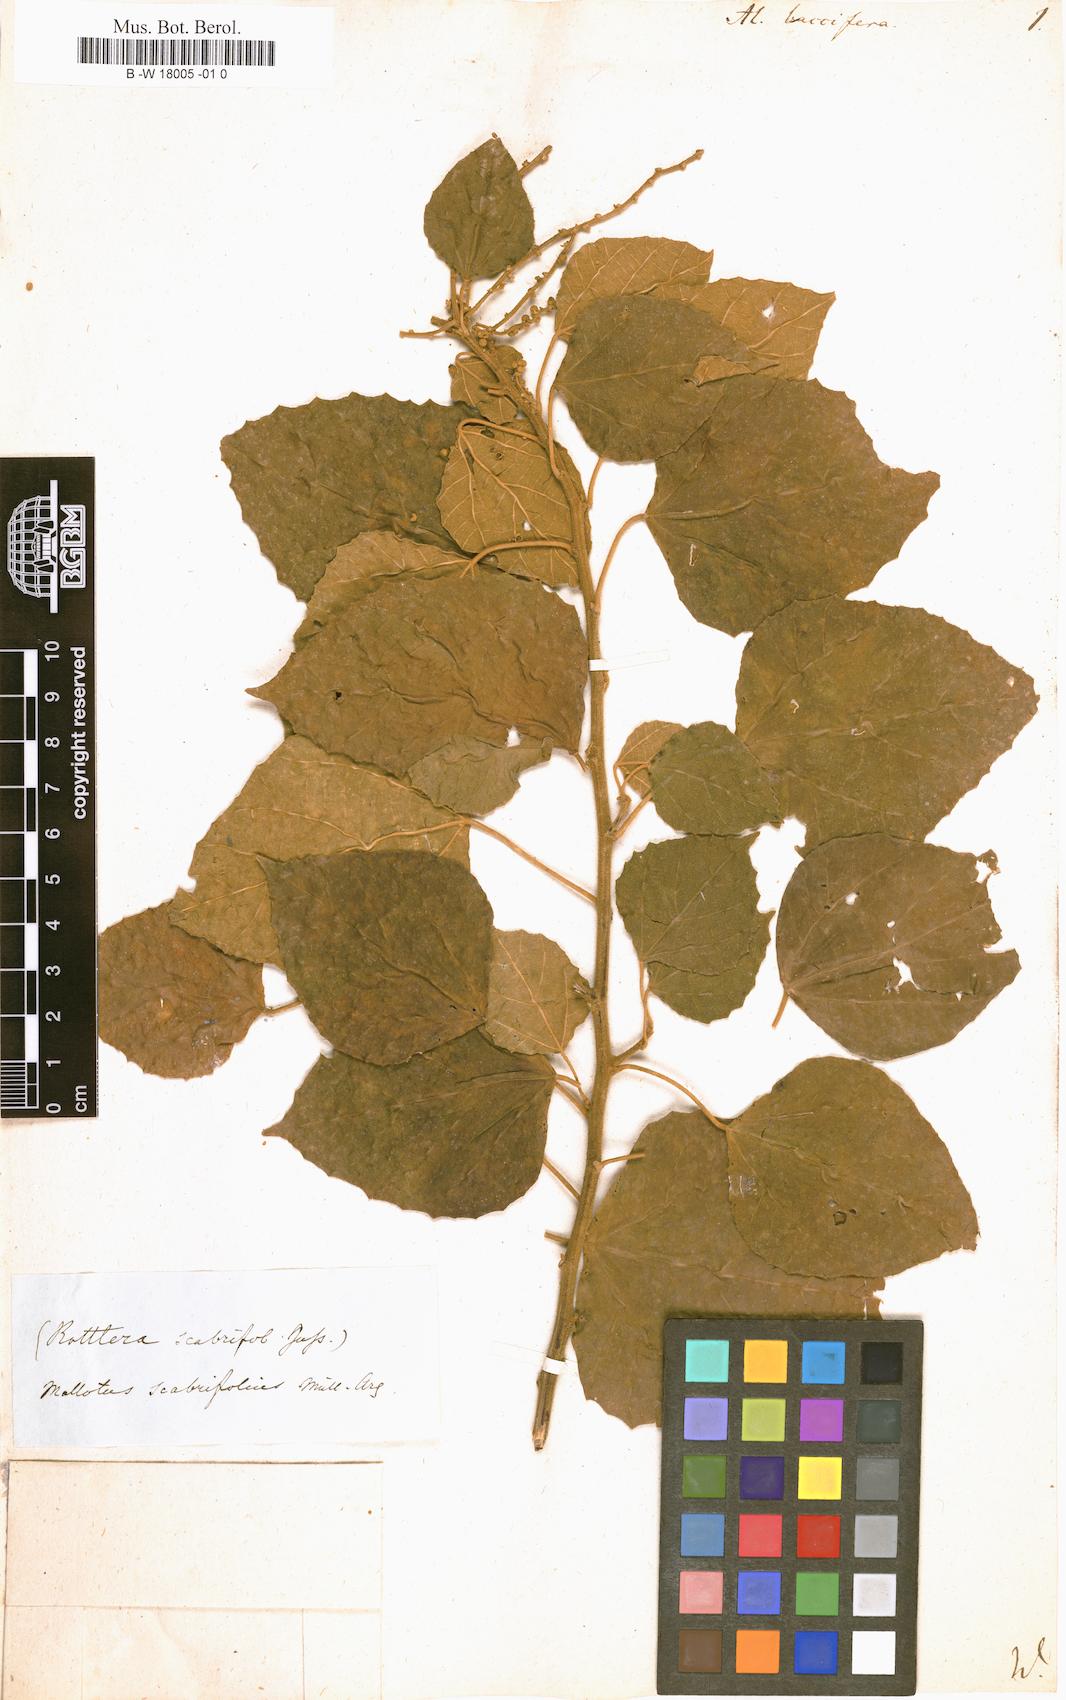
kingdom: Plantae
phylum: Tracheophyta
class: Magnoliopsida
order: Malpighiales
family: Euphorbiaceae
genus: Croton
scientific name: Croton aromaticus
